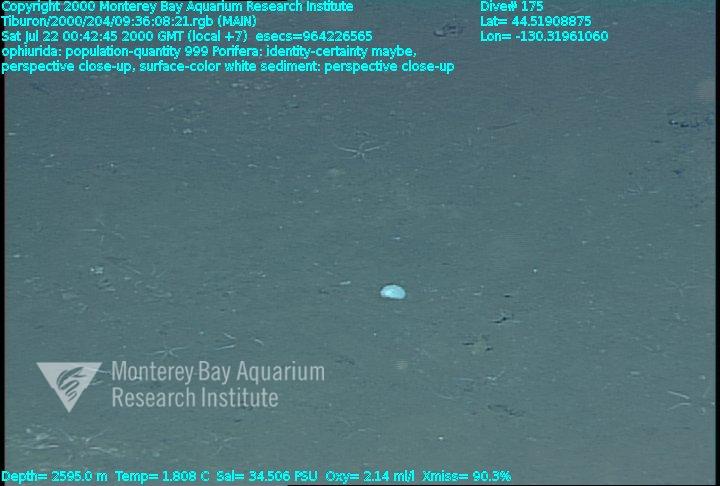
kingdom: Animalia
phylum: Porifera
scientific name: Porifera
